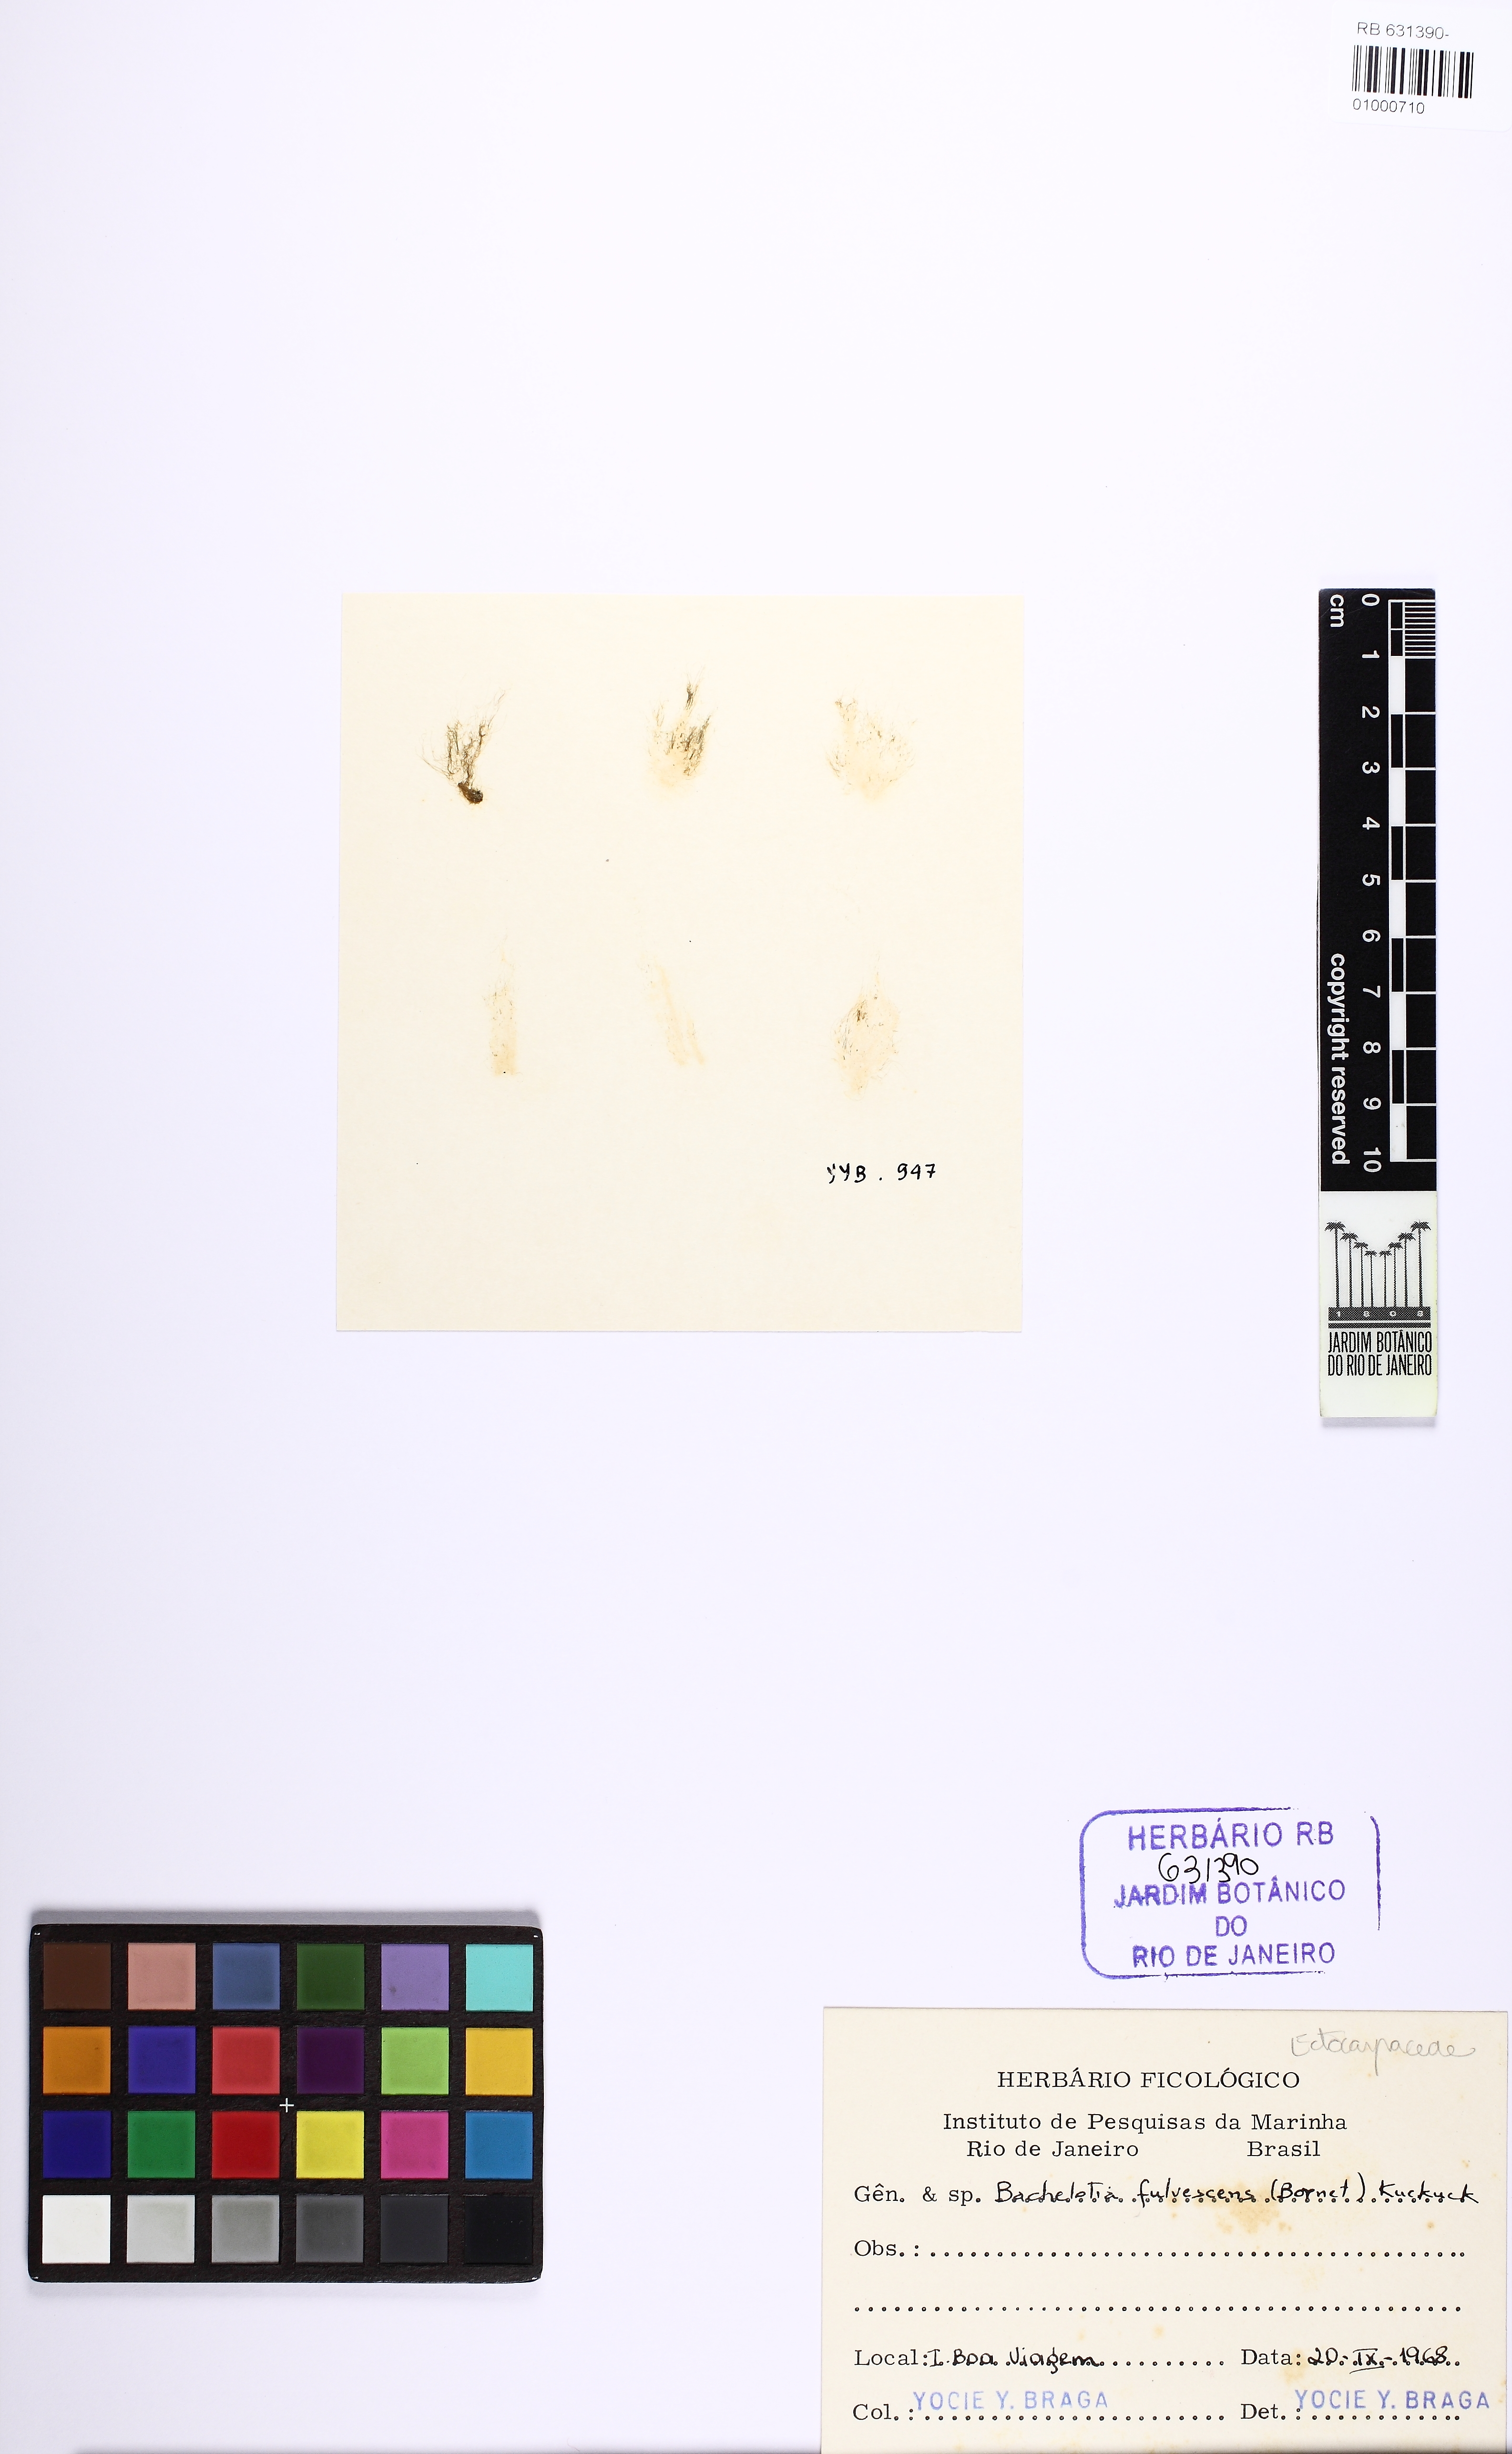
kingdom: Chromista
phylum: Ochrophyta
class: Phaeophyceae
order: Scytothamnales
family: Bachelotiaceae
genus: Bachelotia
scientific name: Bachelotia antillarum
